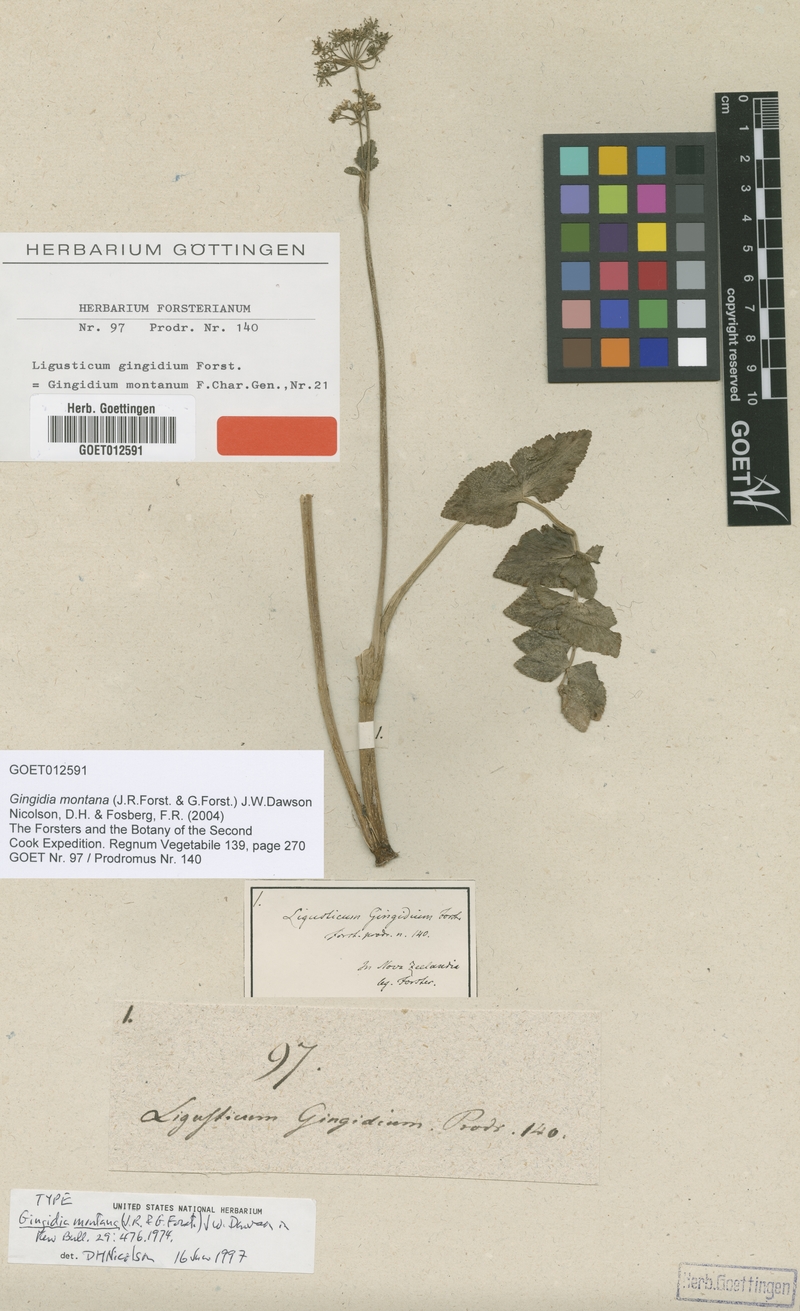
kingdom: Plantae
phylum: Tracheophyta
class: Magnoliopsida
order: Apiales
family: Apiaceae
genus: Gingidia
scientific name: Gingidia montana
